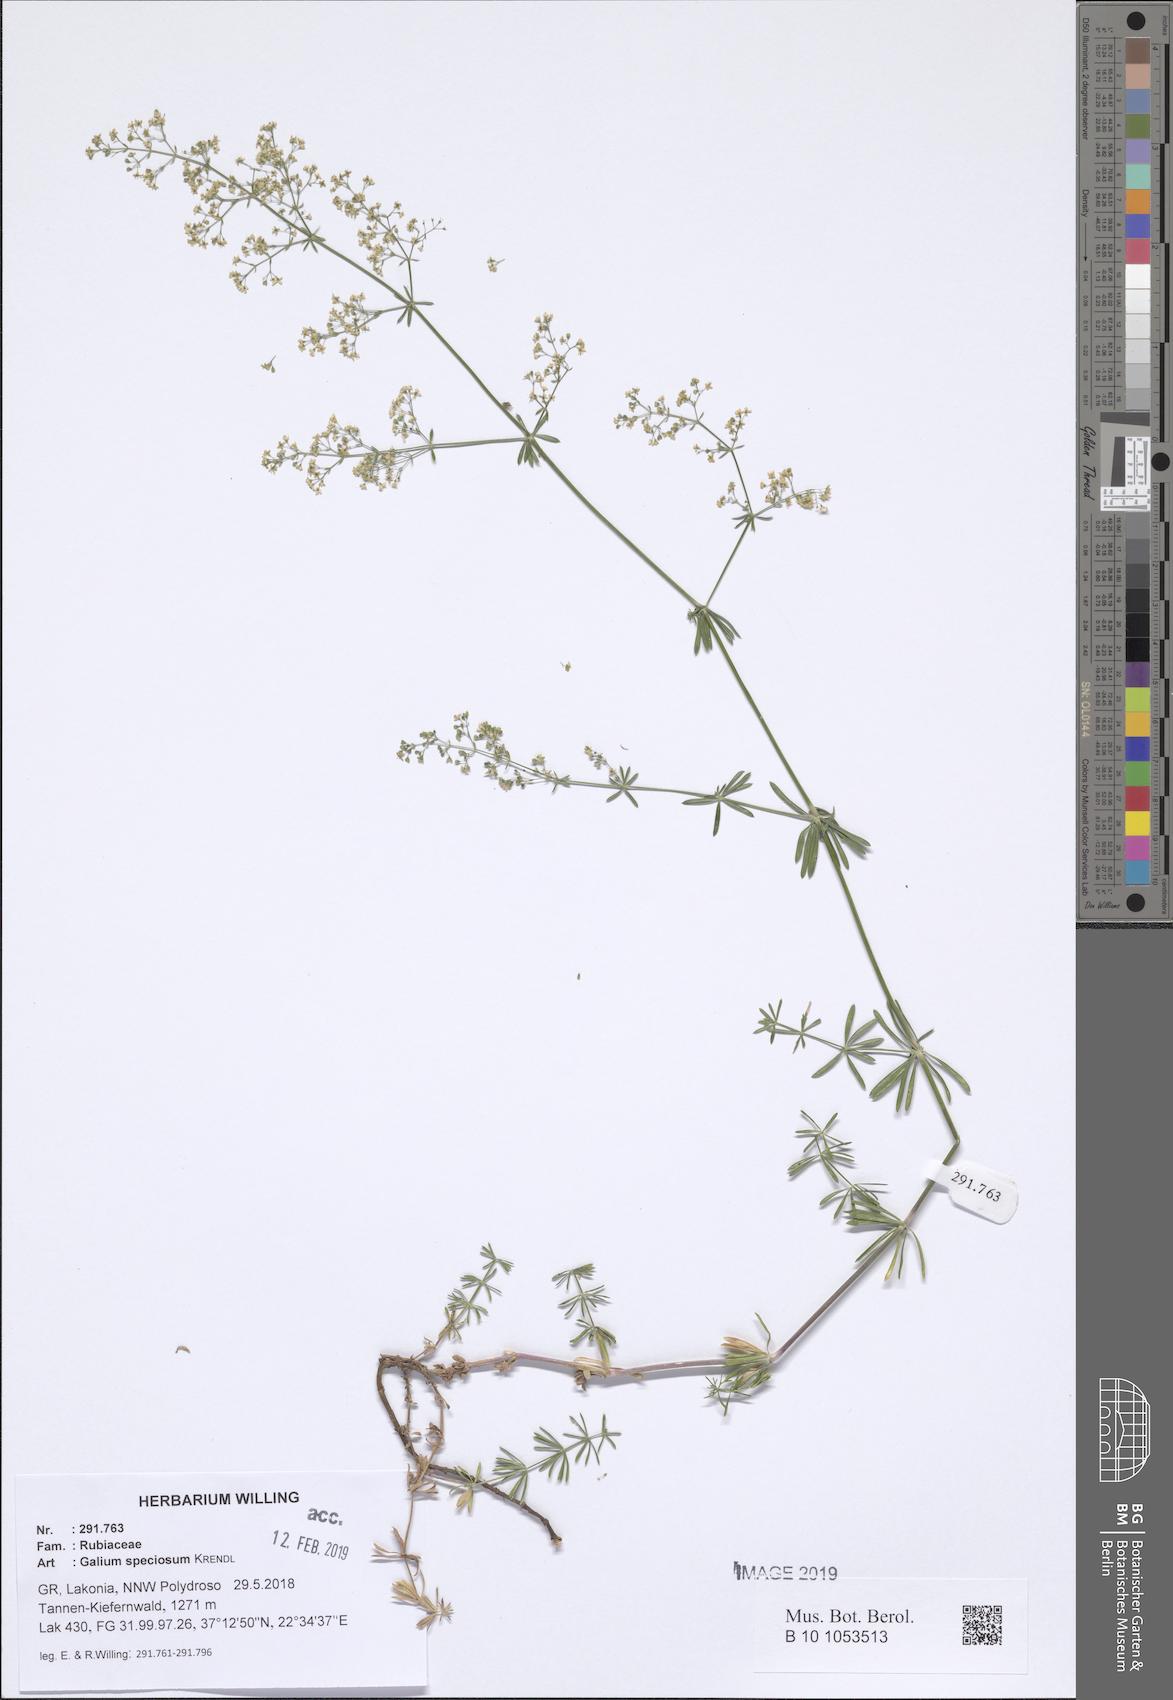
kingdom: Plantae
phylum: Tracheophyta
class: Magnoliopsida
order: Gentianales
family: Rubiaceae
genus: Galium
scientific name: Galium speciosum
